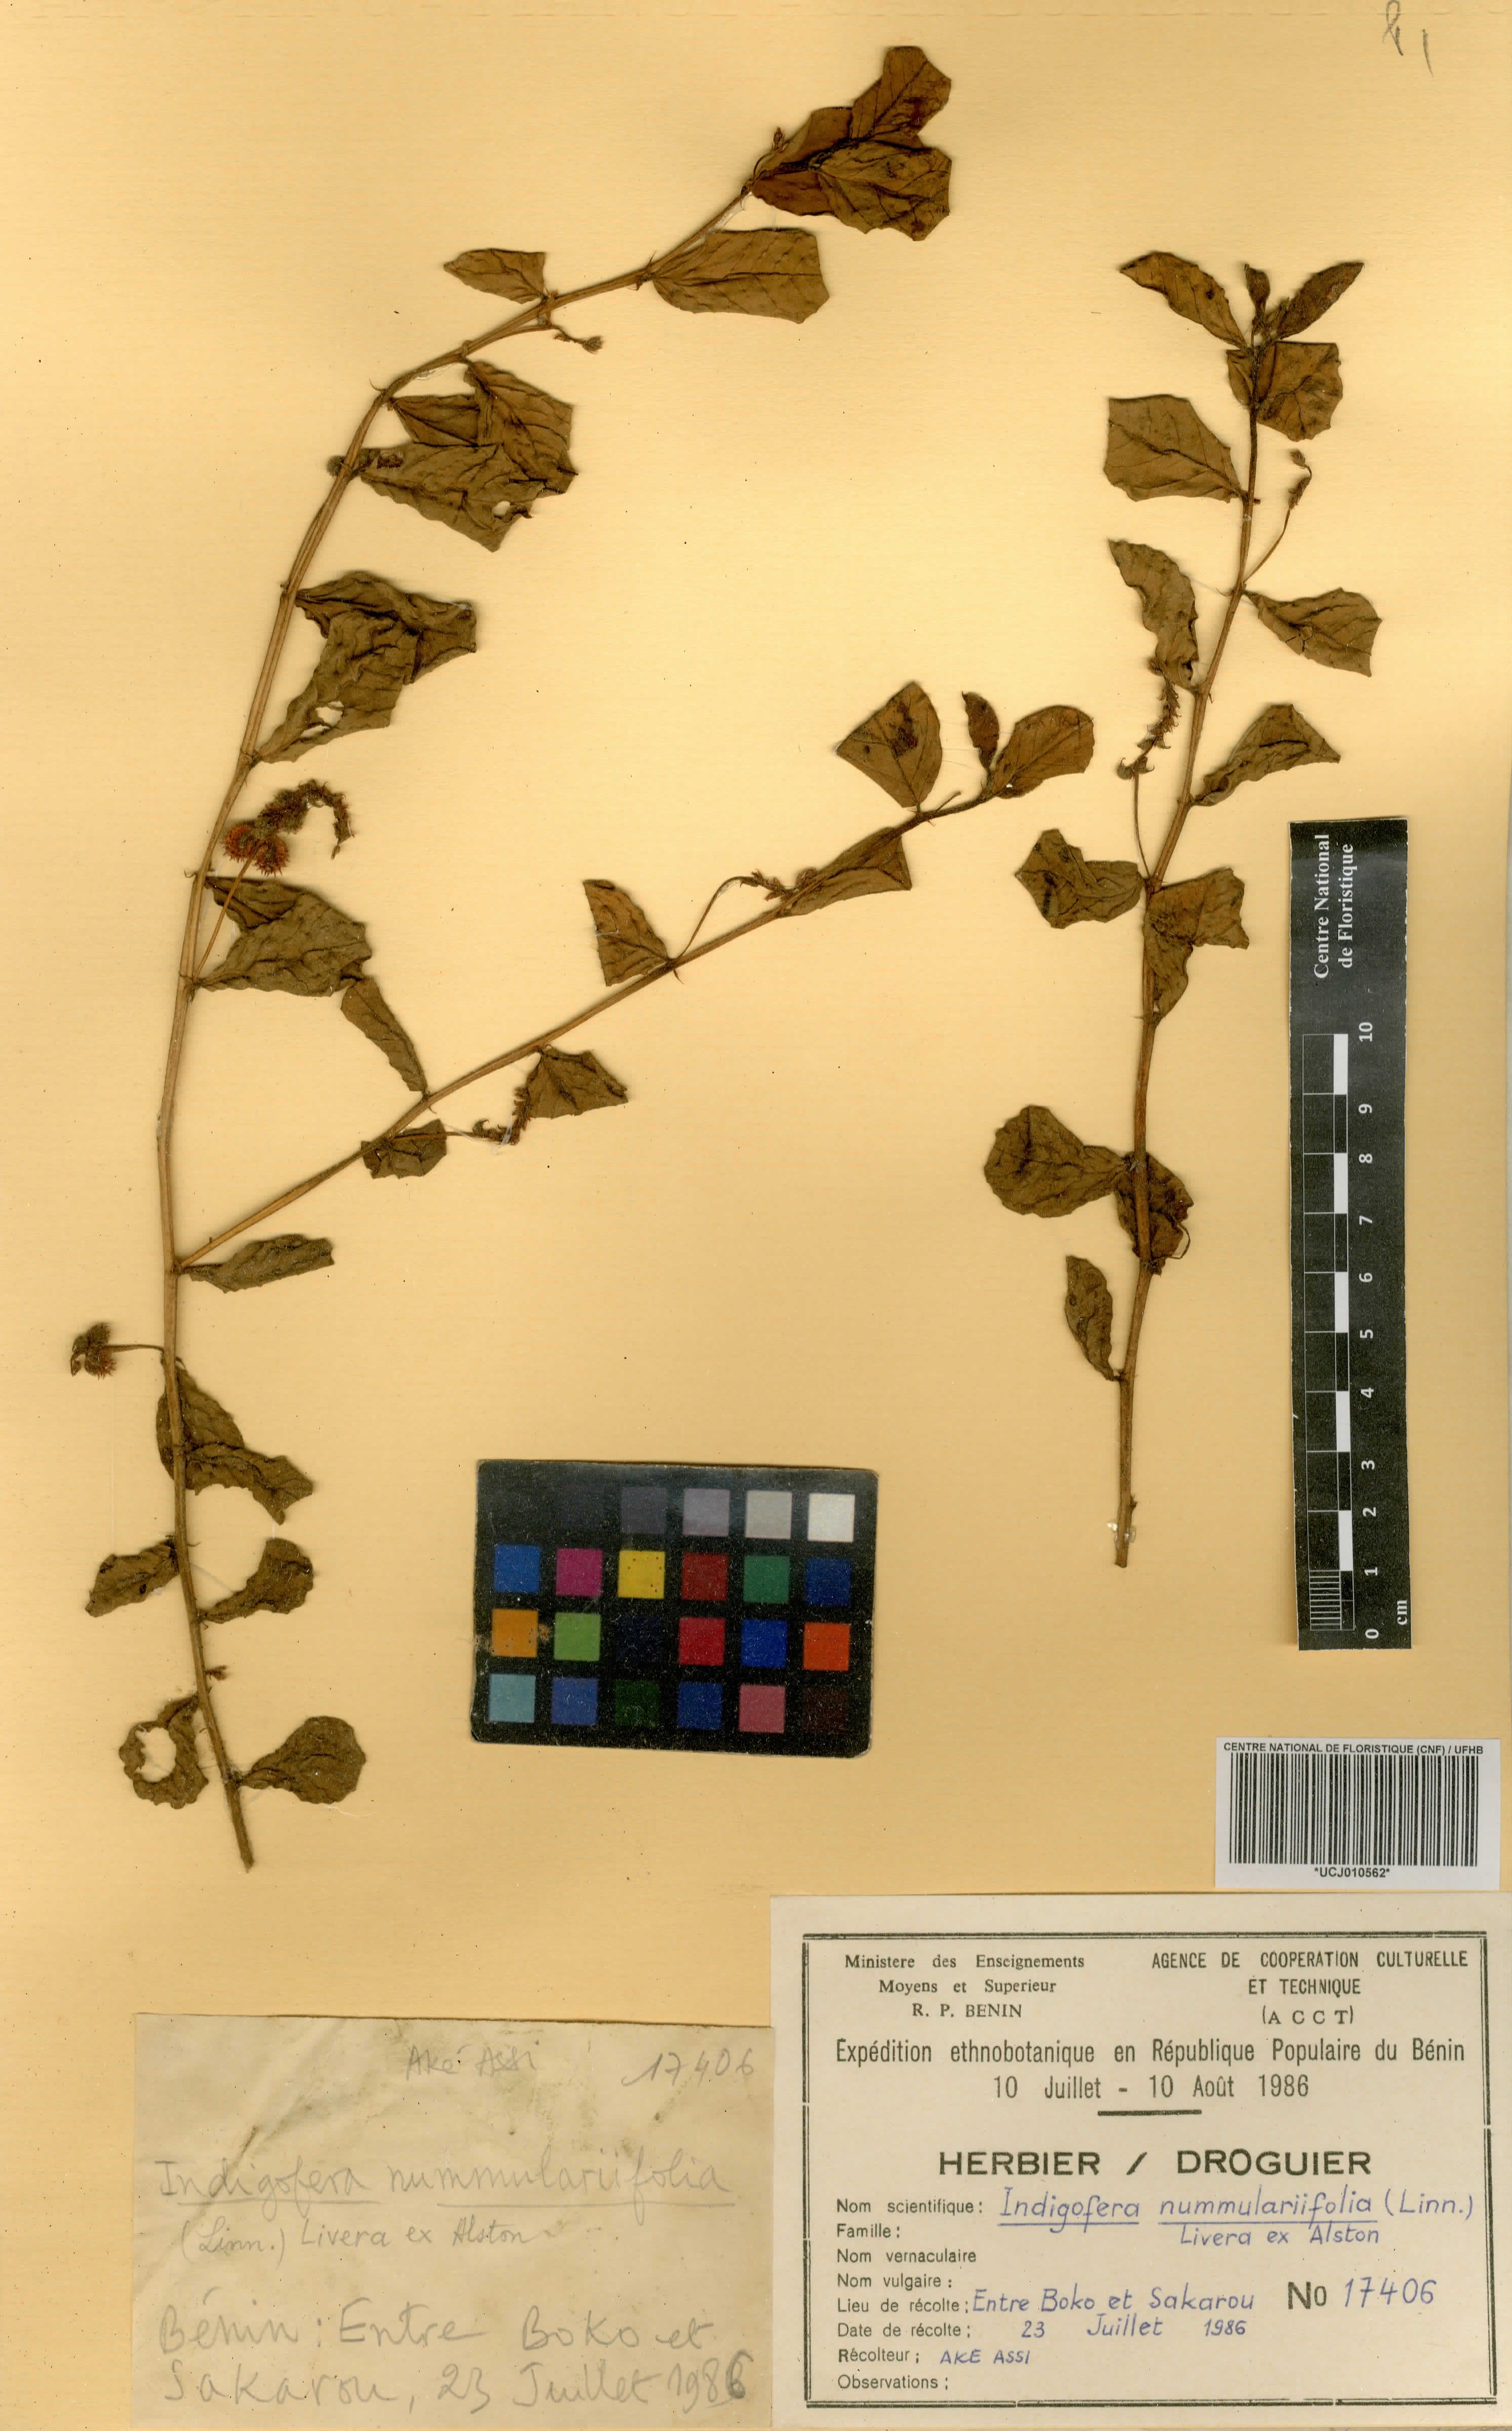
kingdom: Plantae
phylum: Tracheophyta
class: Magnoliopsida
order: Fabales
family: Fabaceae
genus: Indigofera
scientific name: Indigofera nummulariifolia
